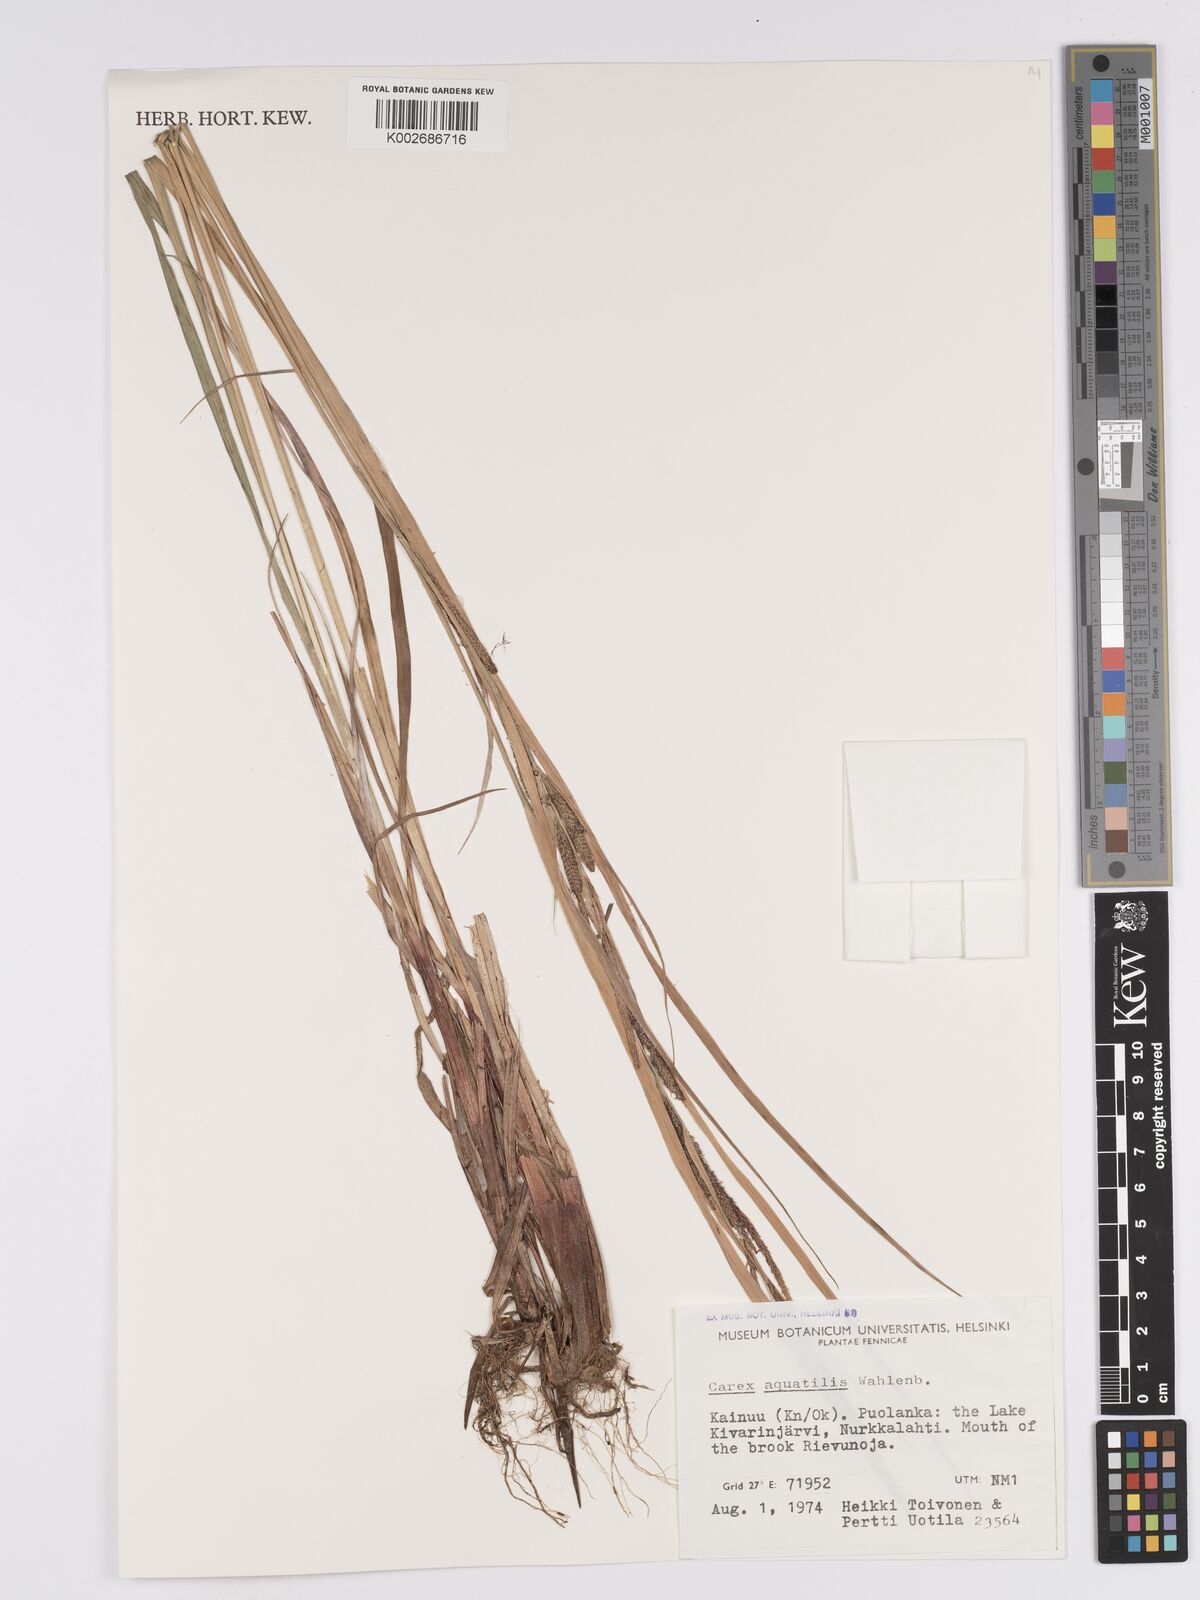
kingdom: Plantae
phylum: Tracheophyta
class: Liliopsida
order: Poales
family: Cyperaceae
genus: Carex
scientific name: Carex aquatilis
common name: Water sedge
